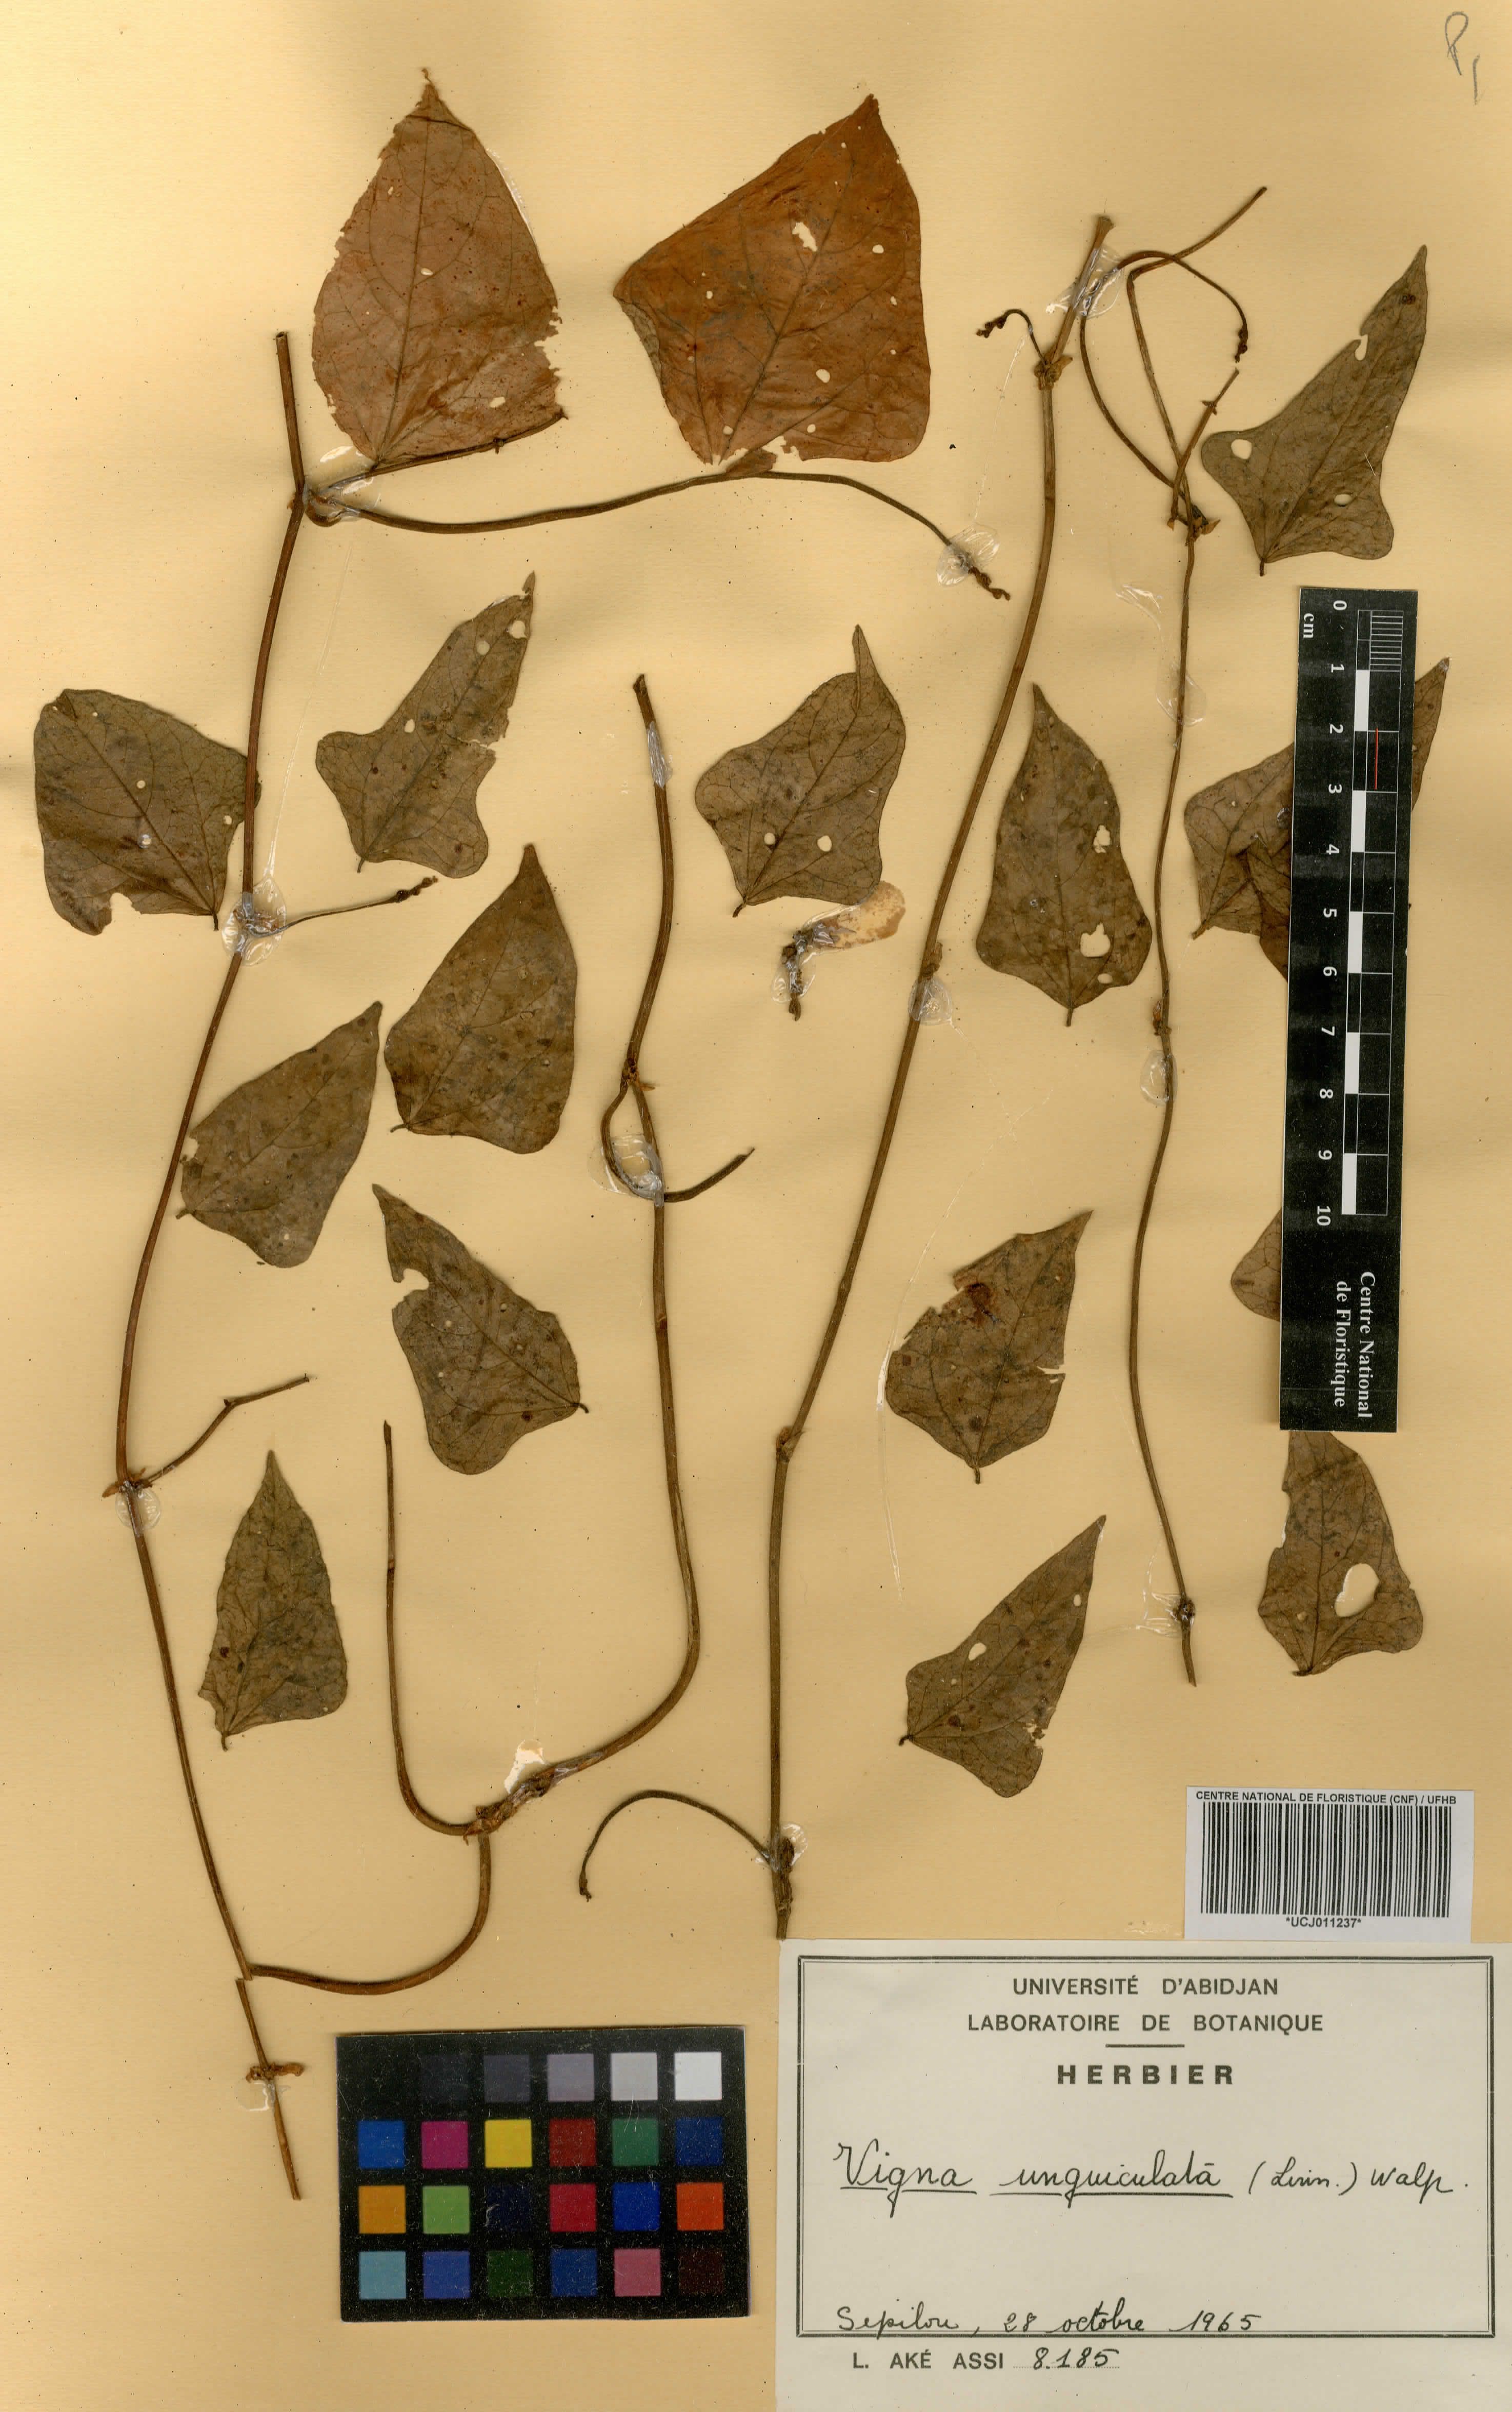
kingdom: Plantae
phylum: Tracheophyta
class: Magnoliopsida
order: Fabales
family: Fabaceae
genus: Vigna
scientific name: Vigna unguiculata
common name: Cowpea
